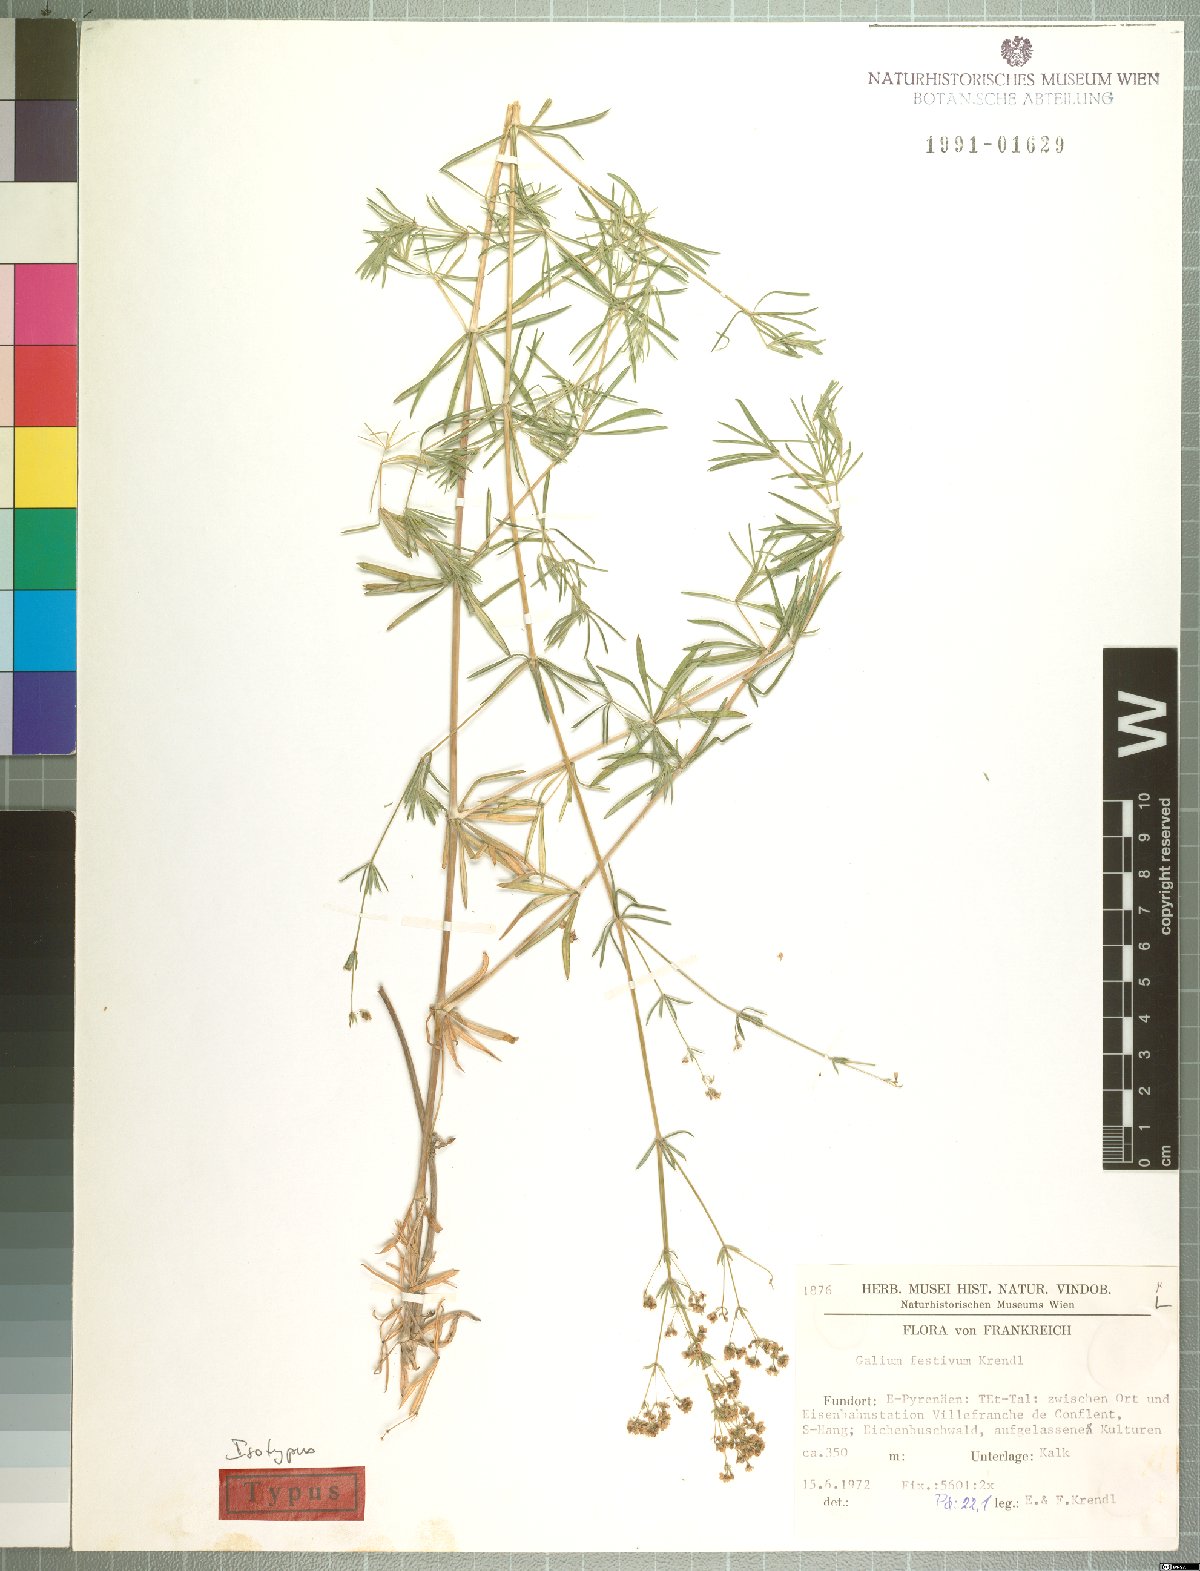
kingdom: Plantae
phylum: Tracheophyta
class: Magnoliopsida
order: Gentianales
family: Rubiaceae
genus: Galium
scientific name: Galium festivum
